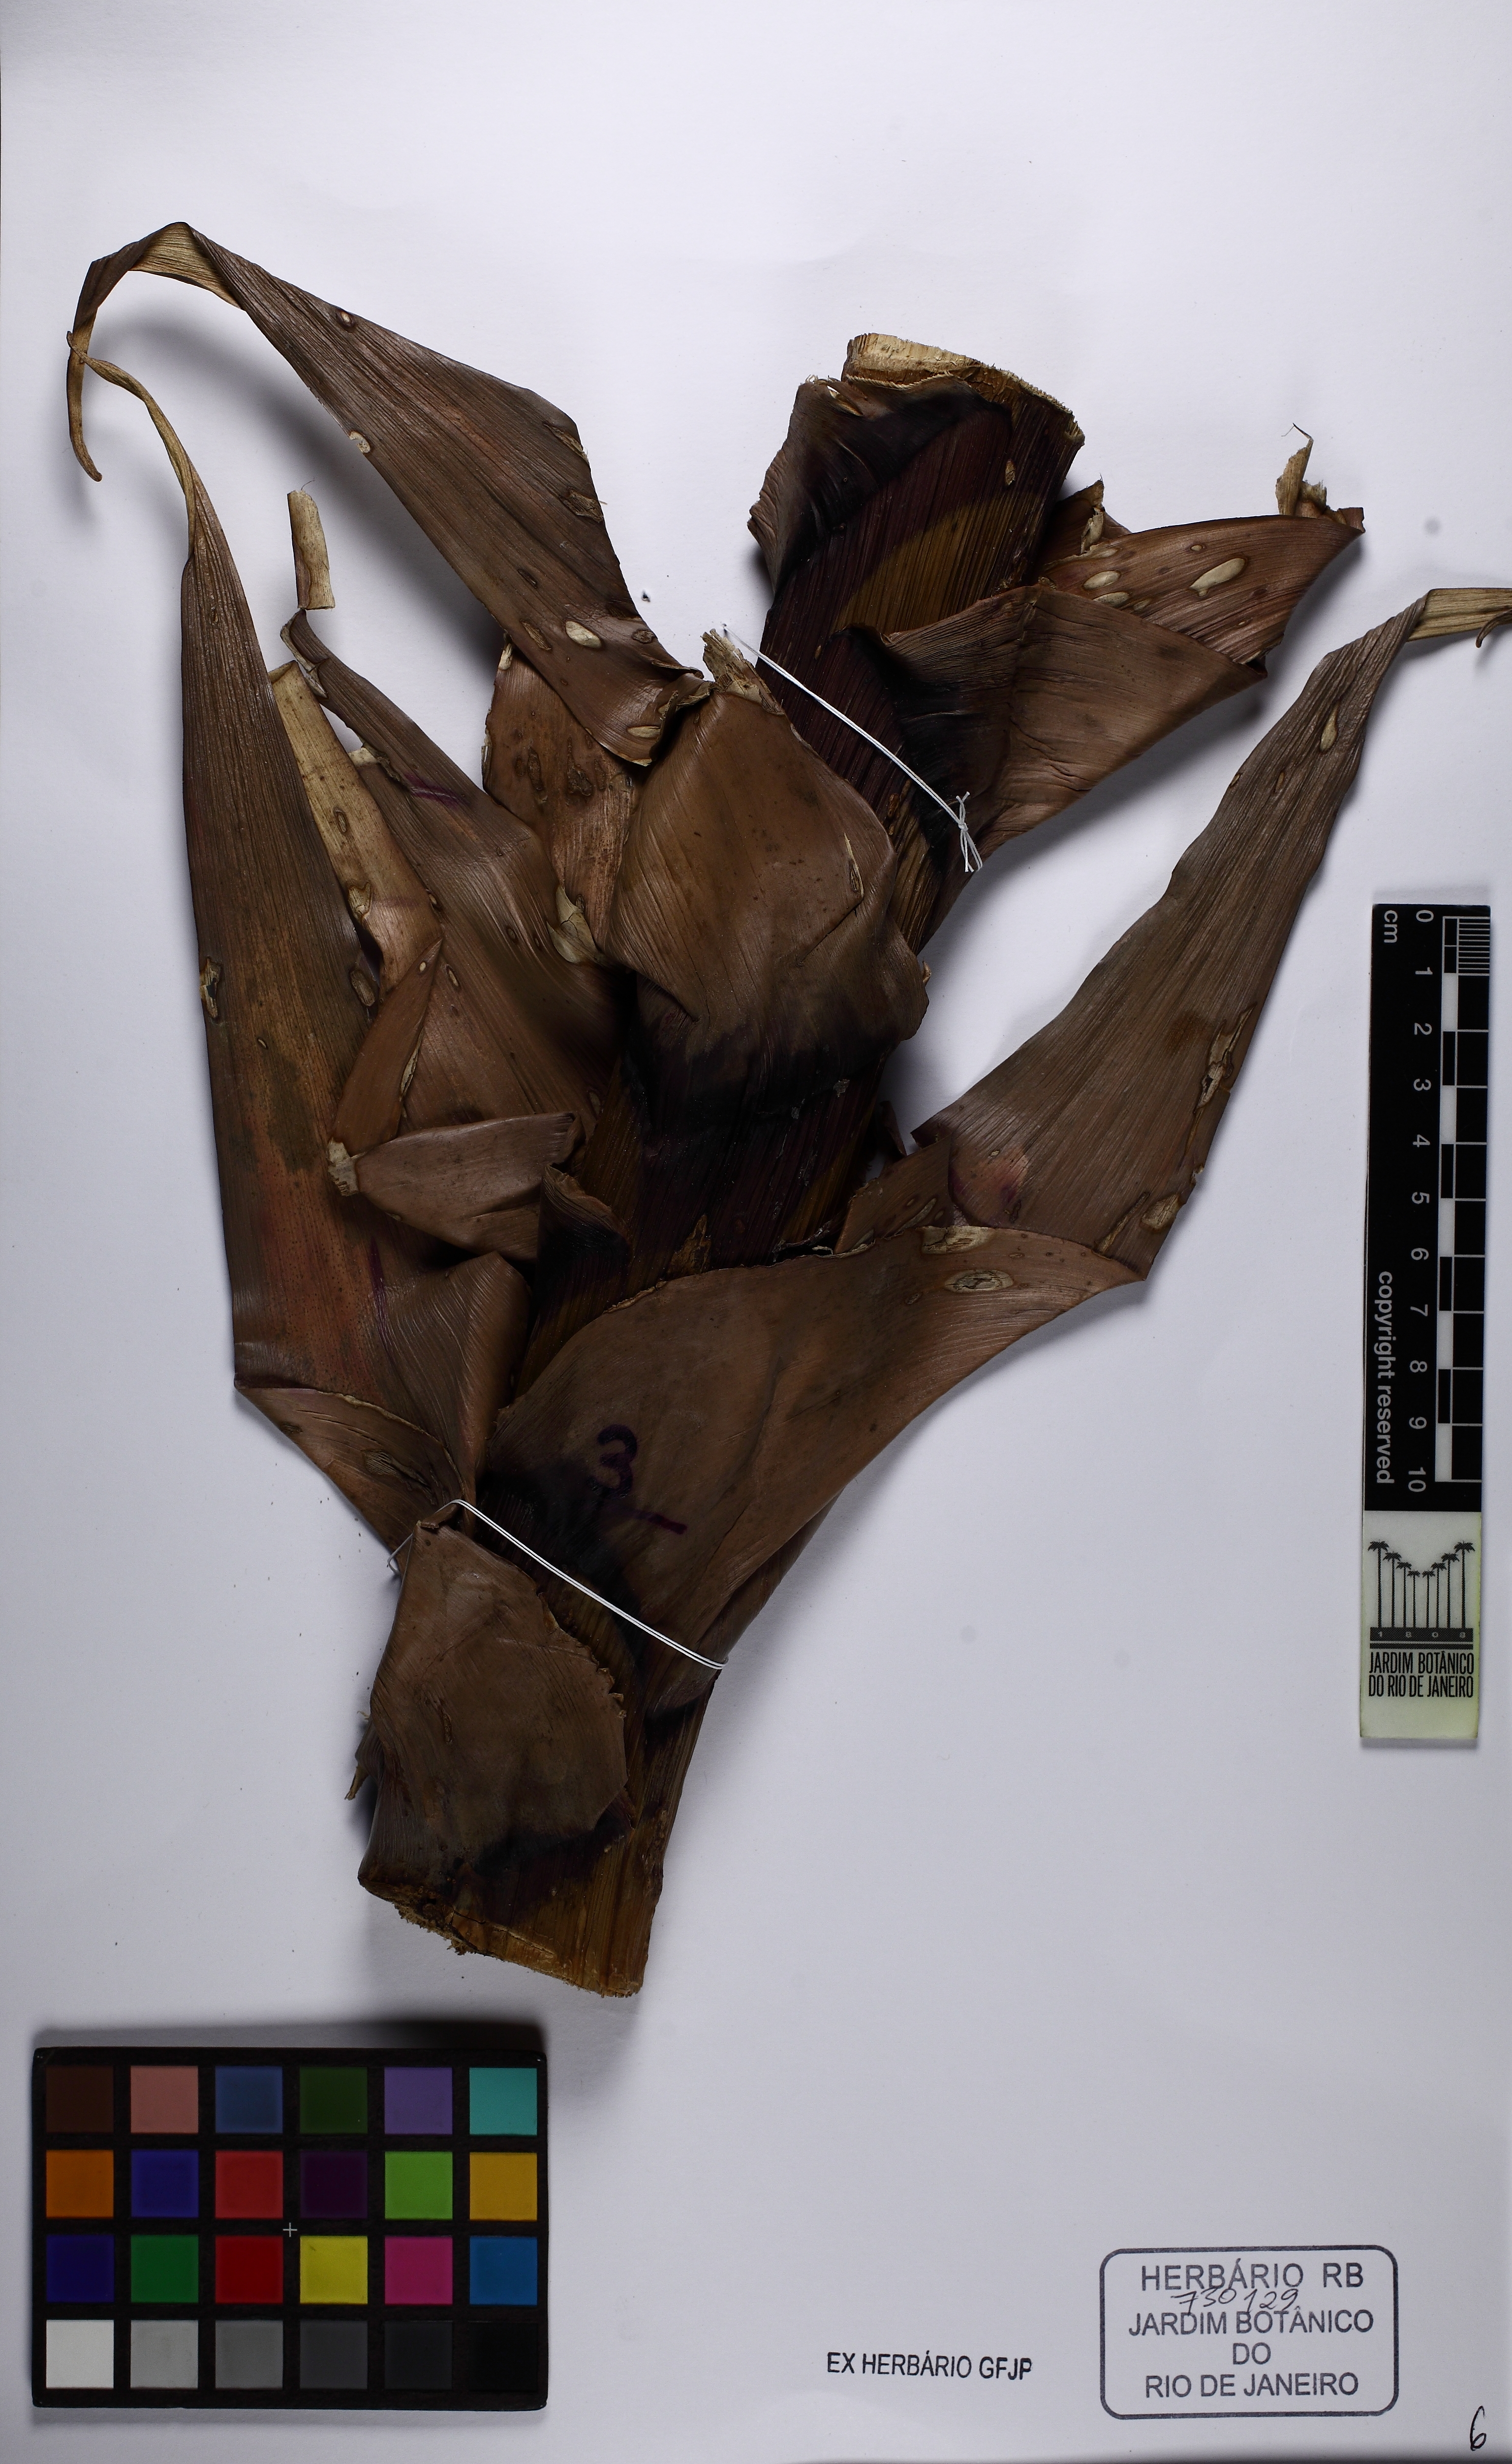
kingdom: Plantae
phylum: Tracheophyta
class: Liliopsida
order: Poales
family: Bromeliaceae
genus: Alcantarea
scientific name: Alcantarea extensa
